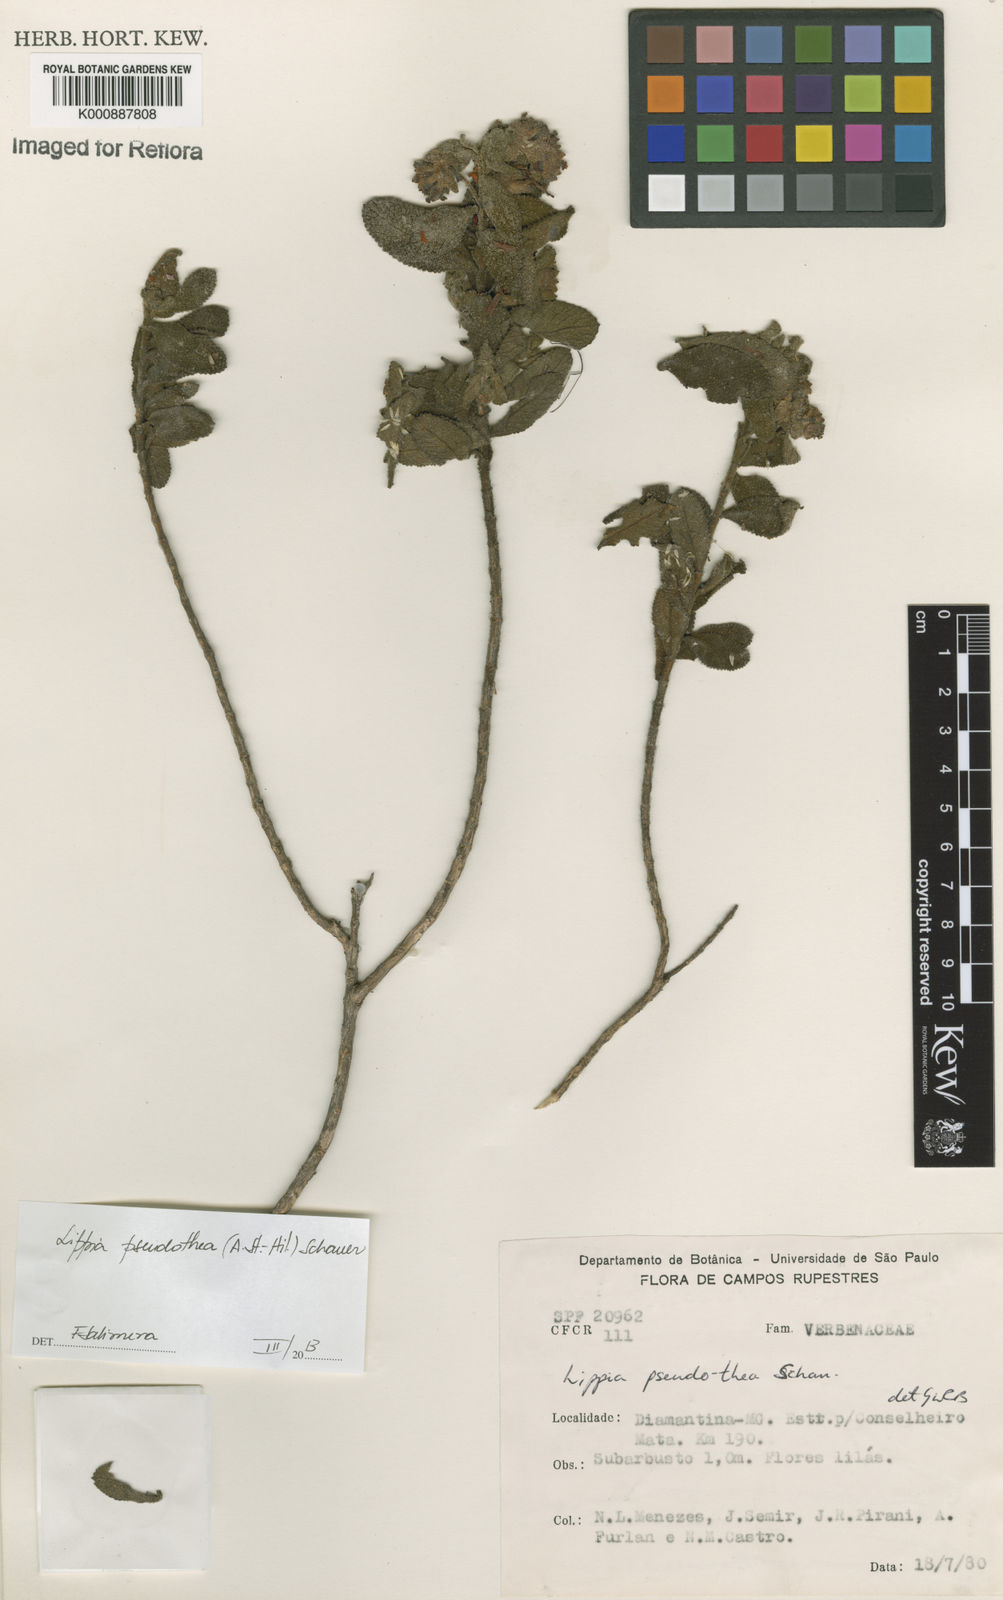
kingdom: Plantae
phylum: Tracheophyta
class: Magnoliopsida
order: Lamiales
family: Verbenaceae
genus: Lippia
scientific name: Lippia
